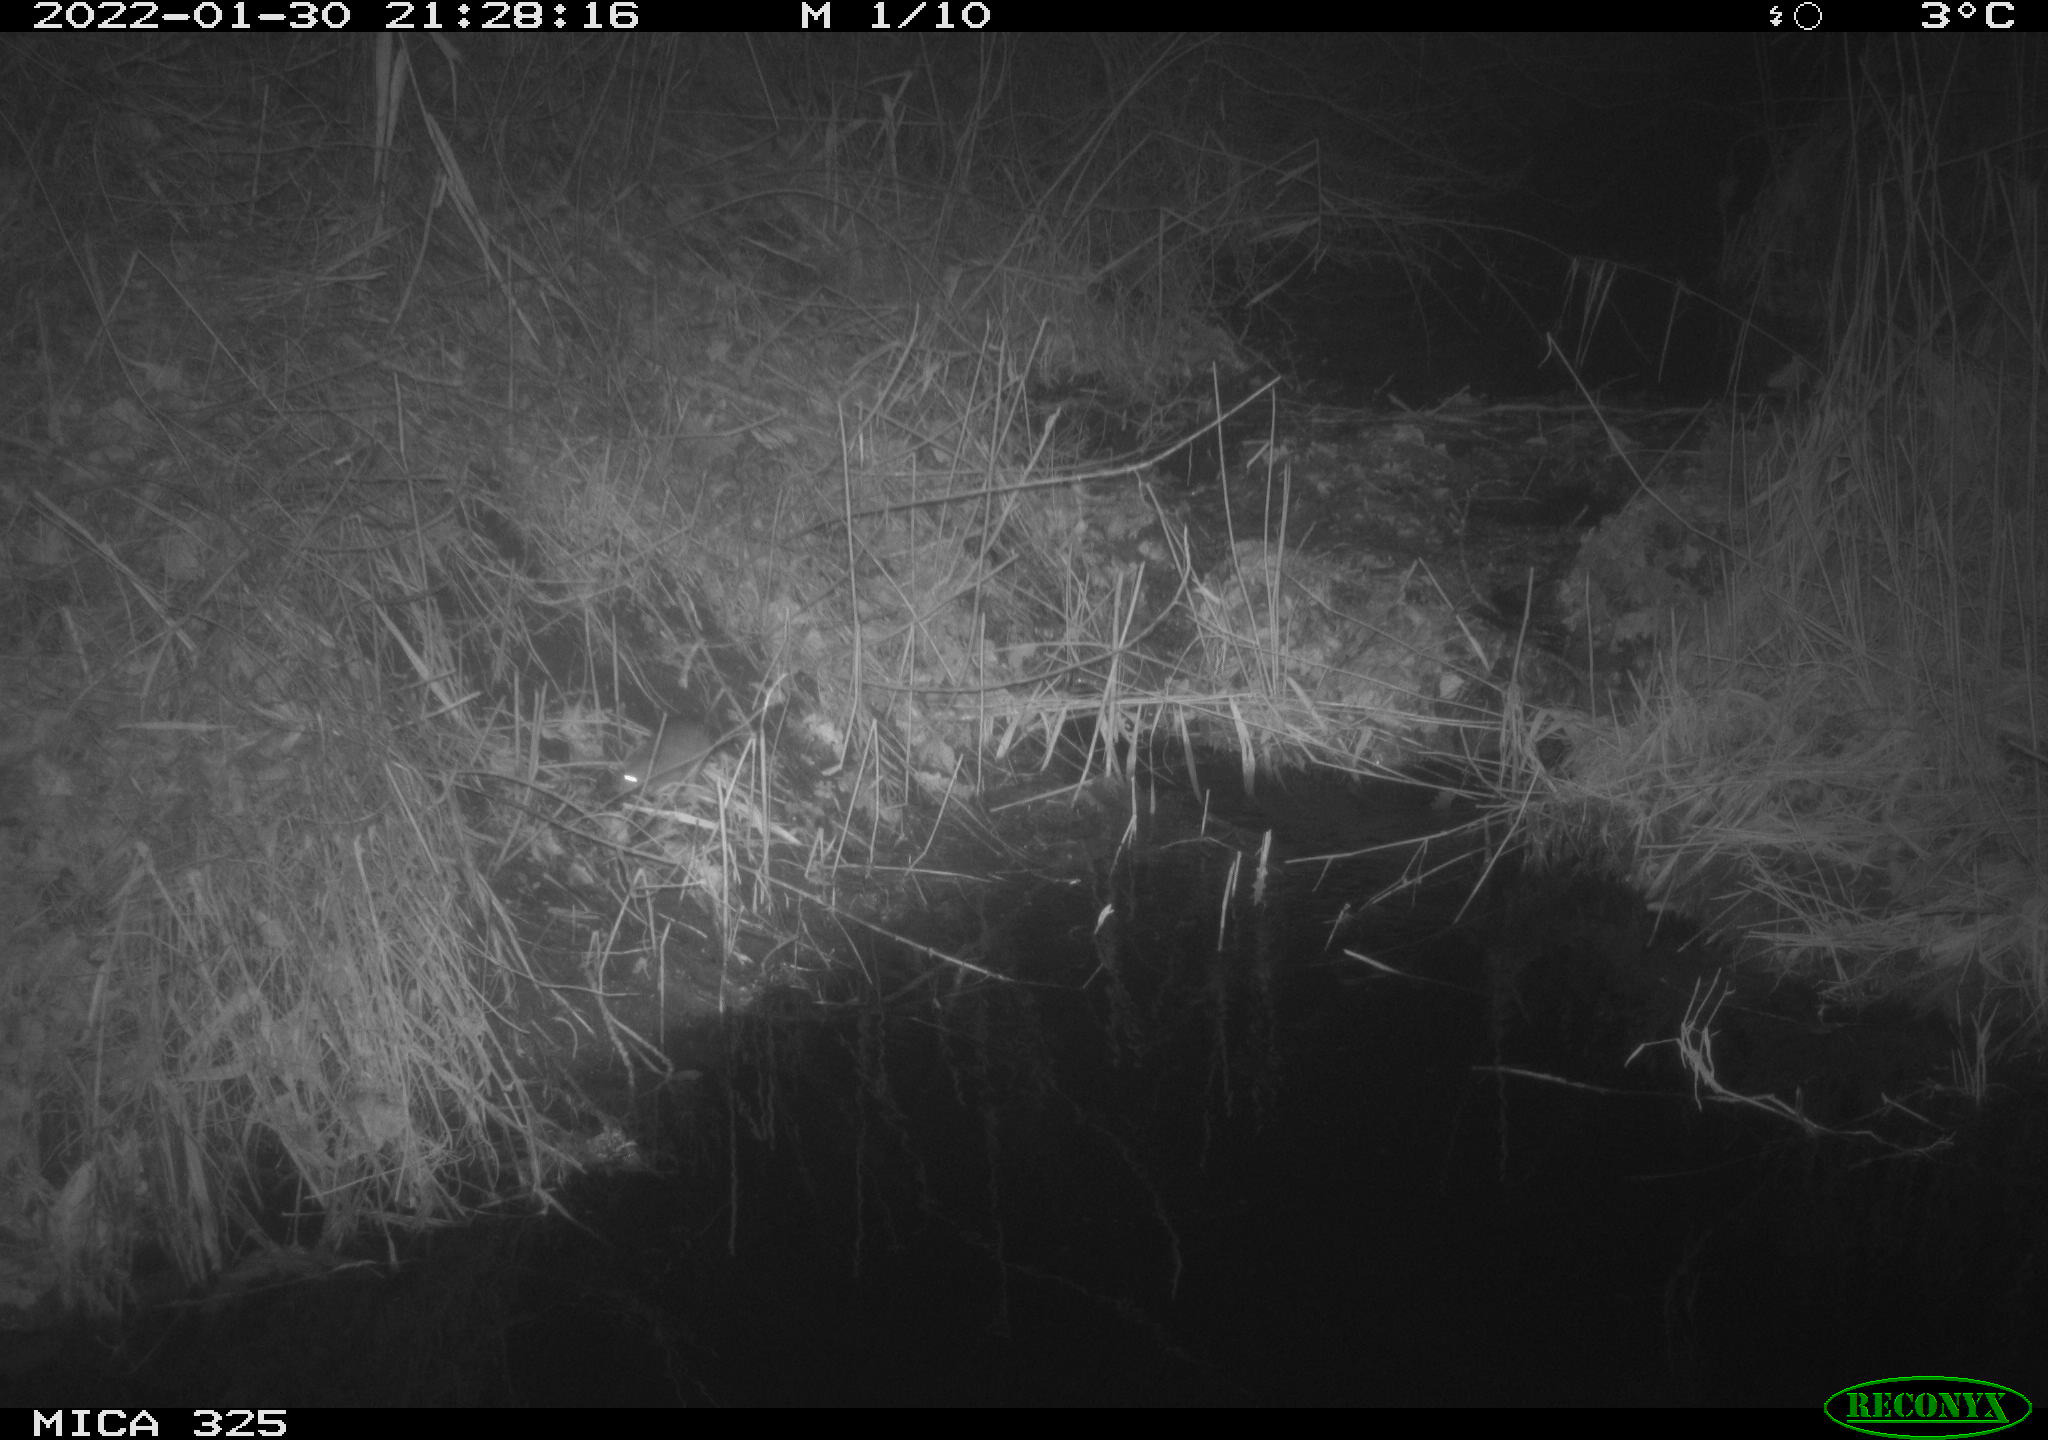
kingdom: Animalia
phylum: Chordata
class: Mammalia
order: Rodentia
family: Muridae
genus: Rattus
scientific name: Rattus norvegicus
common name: Brown rat
